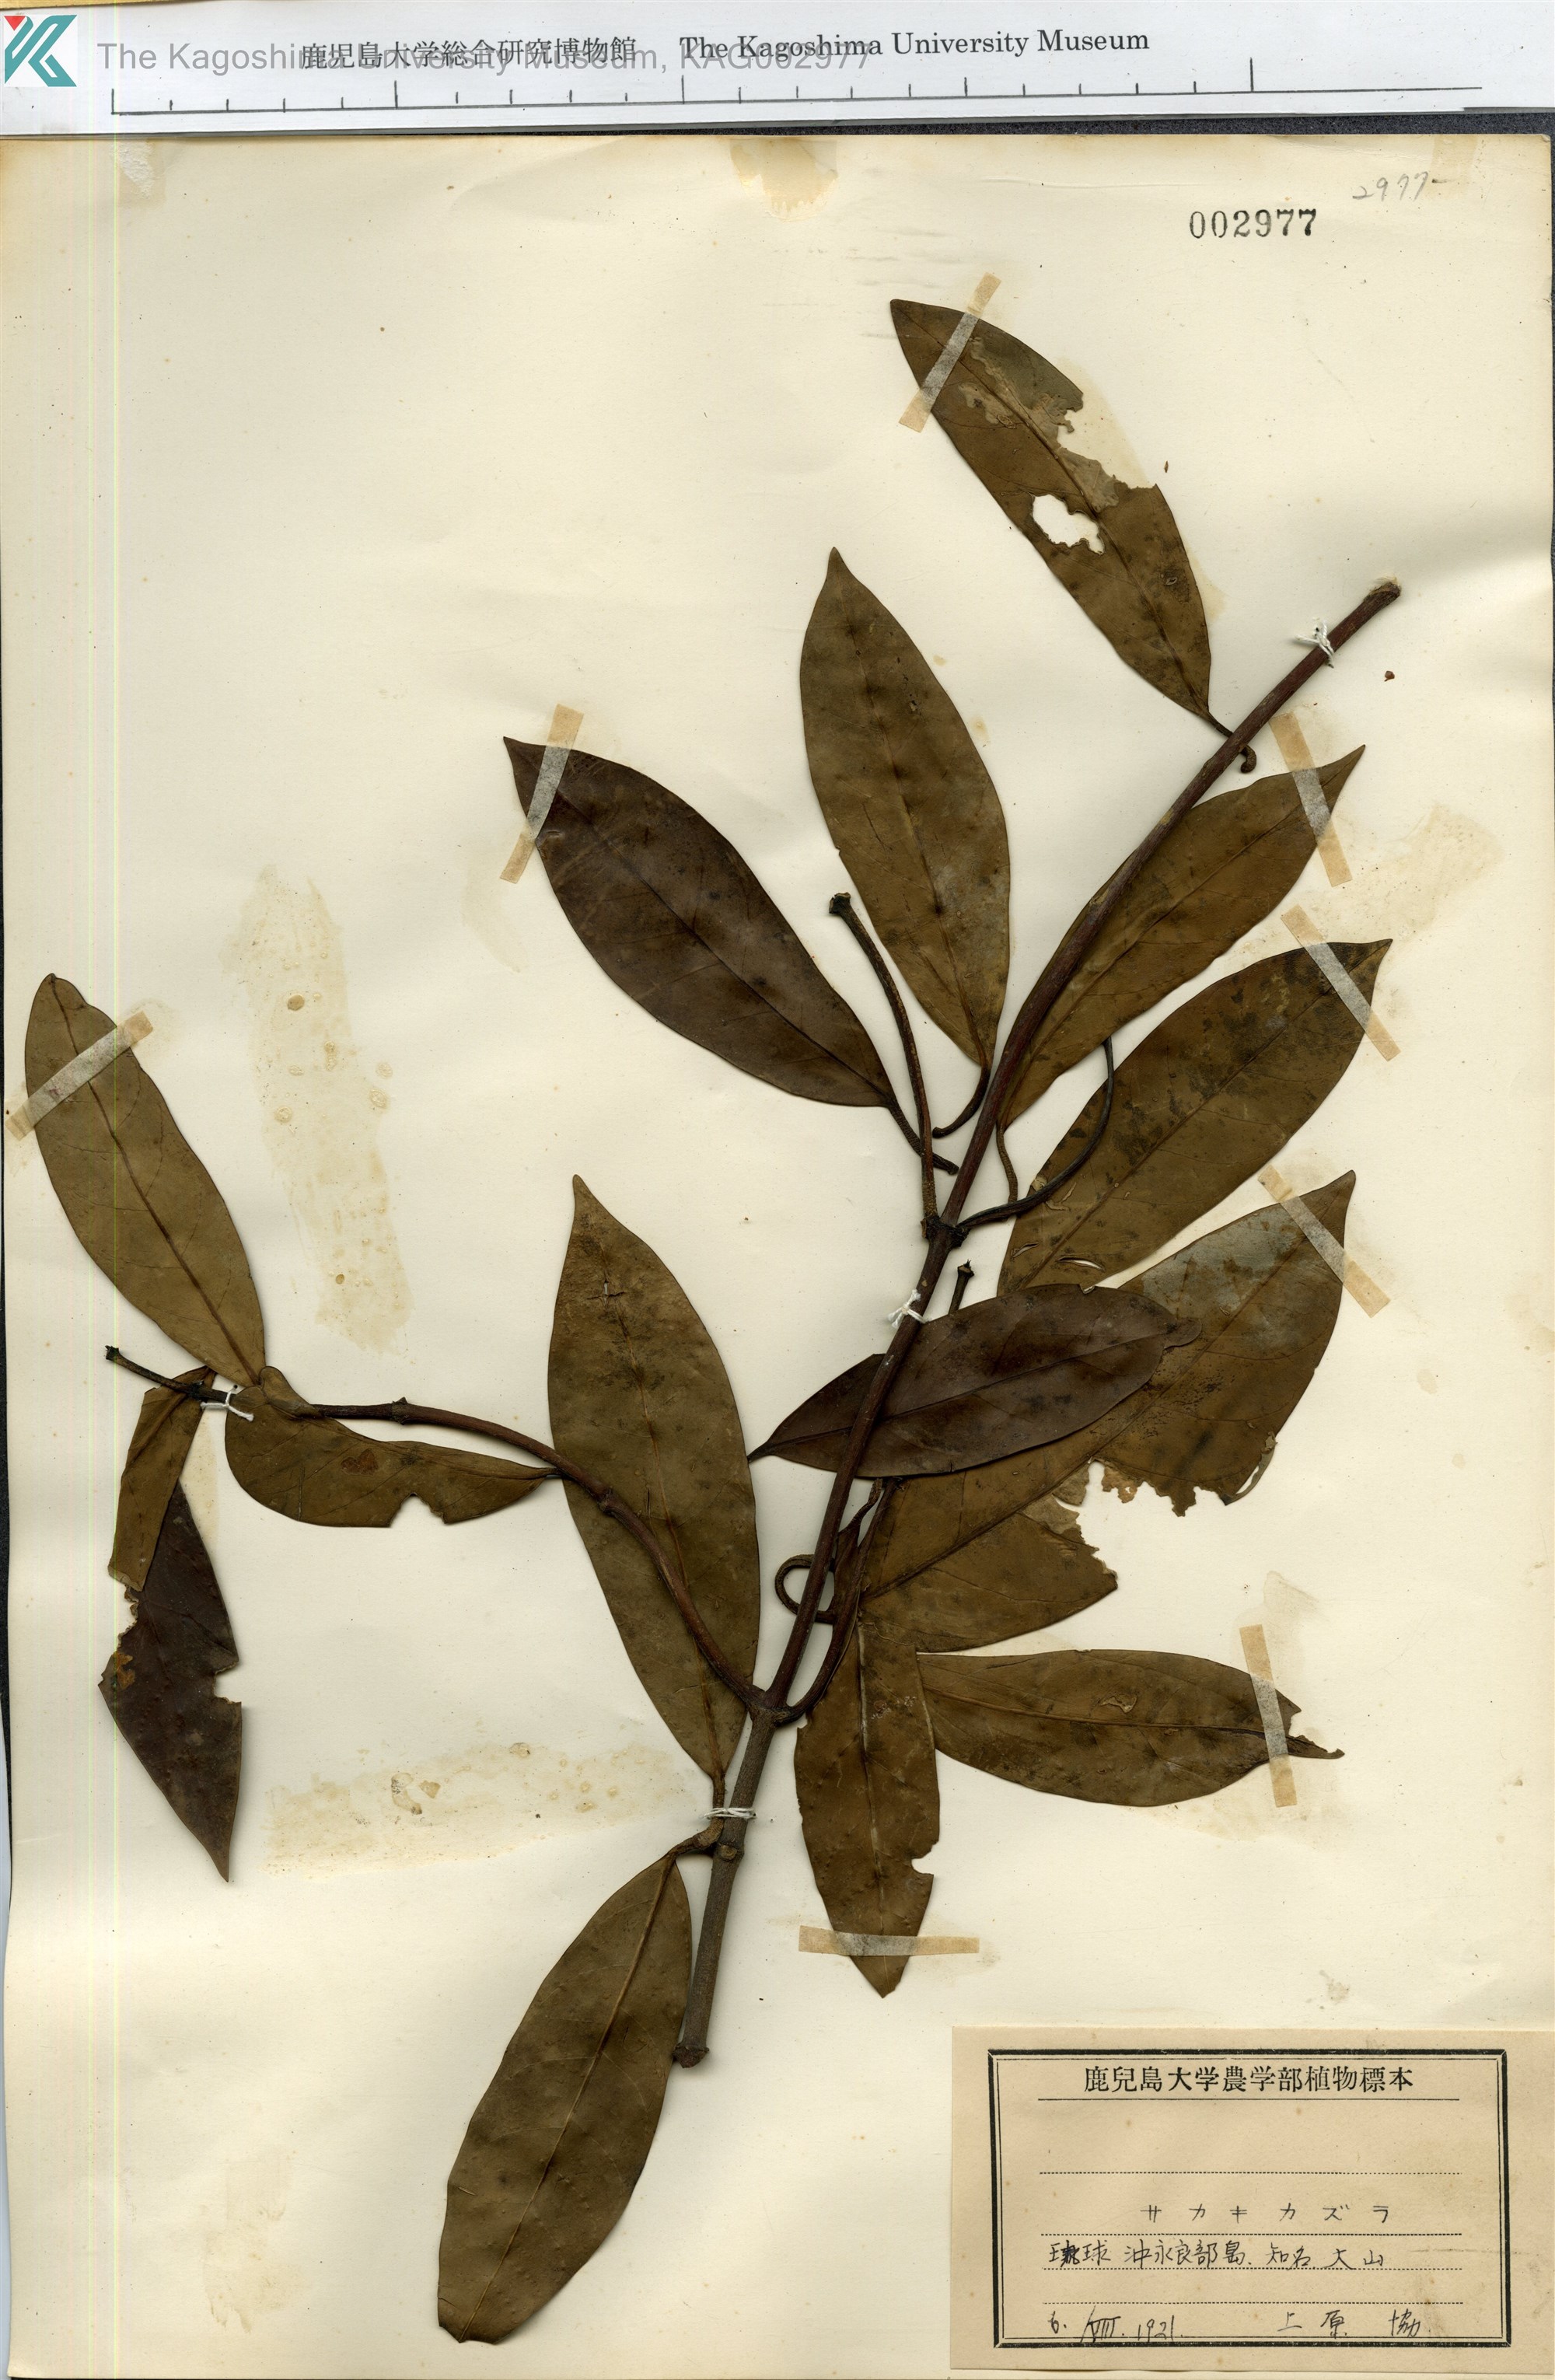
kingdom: Plantae
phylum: Tracheophyta
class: Magnoliopsida
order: Gentianales
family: Apocynaceae
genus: Anodendron
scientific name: Anodendron affine
